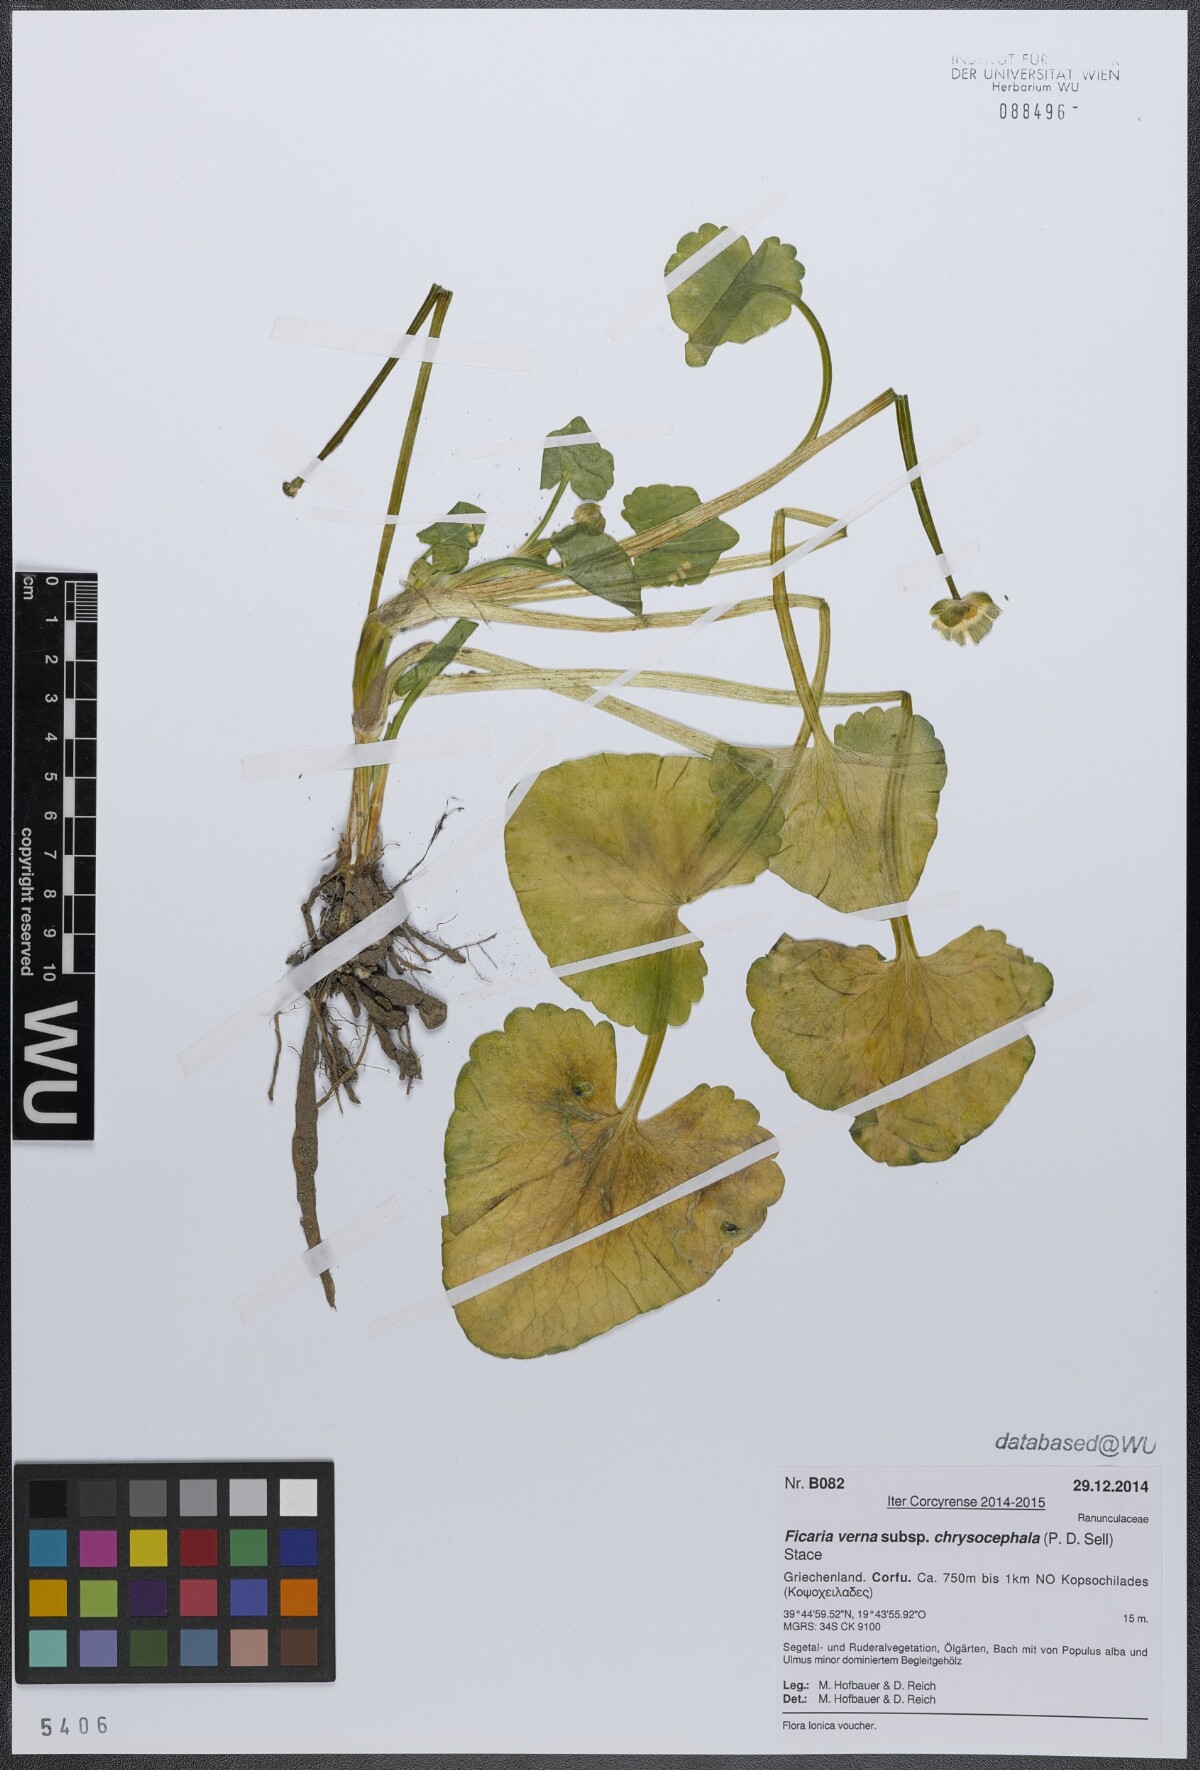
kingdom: Plantae
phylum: Tracheophyta
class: Magnoliopsida
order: Ranunculales
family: Ranunculaceae
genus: Ficaria
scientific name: Ficaria chrysocephala
